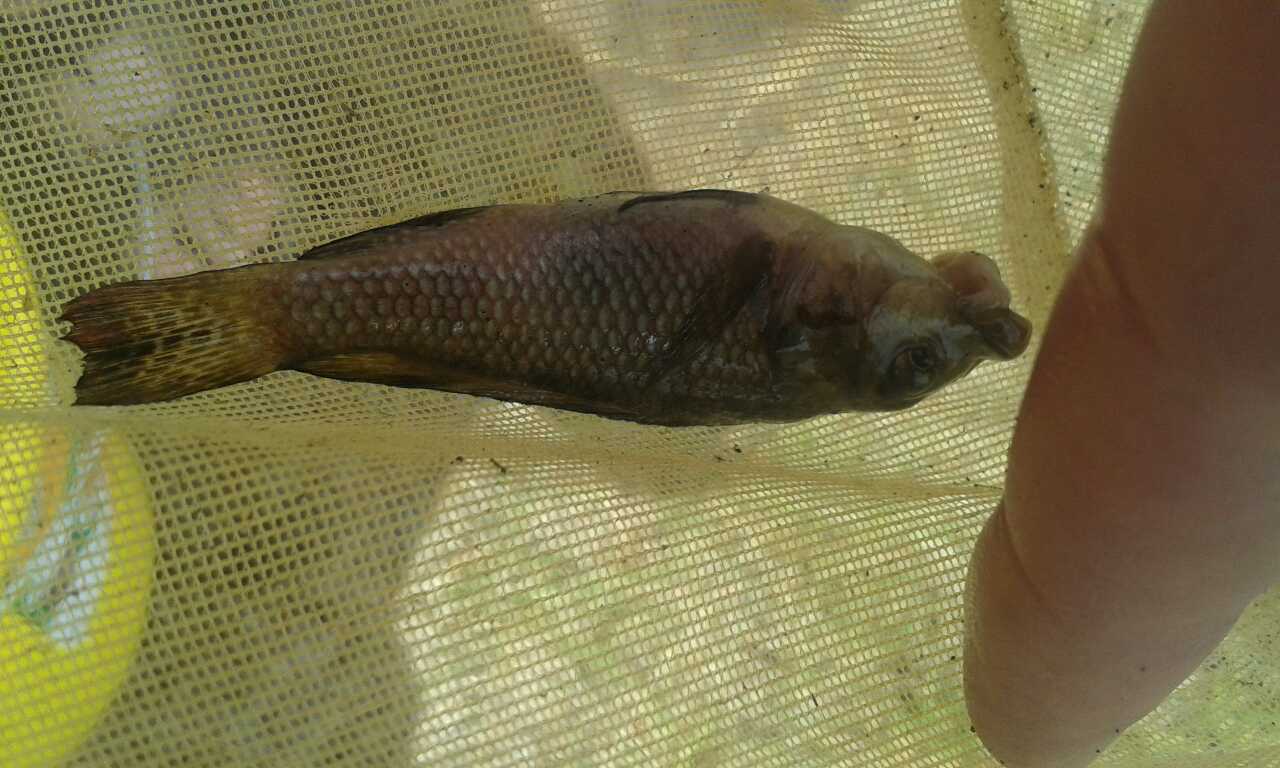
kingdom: Animalia
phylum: Chordata
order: Perciformes
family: Cichlidae
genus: Alcolapia
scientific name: Alcolapia latilabris
